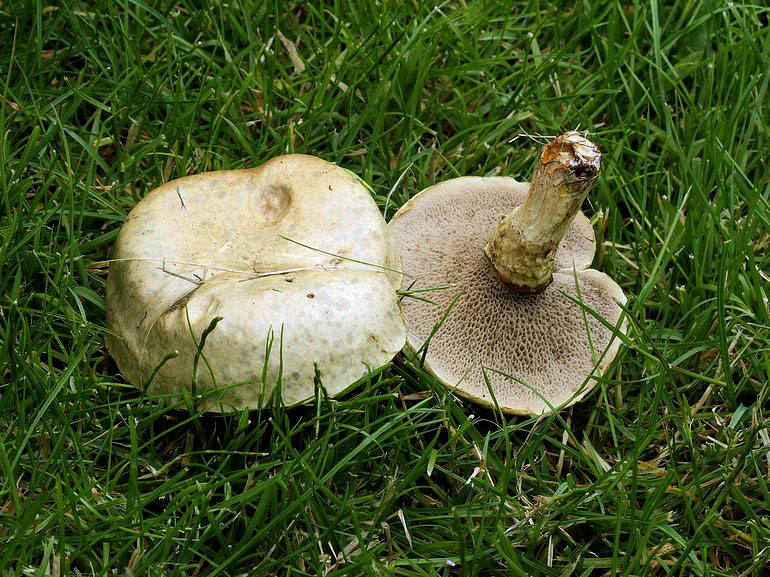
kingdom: Fungi
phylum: Basidiomycota
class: Agaricomycetes
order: Boletales
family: Suillaceae
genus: Suillus
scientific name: Suillus viscidus
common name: olivengrå slimrørhat
